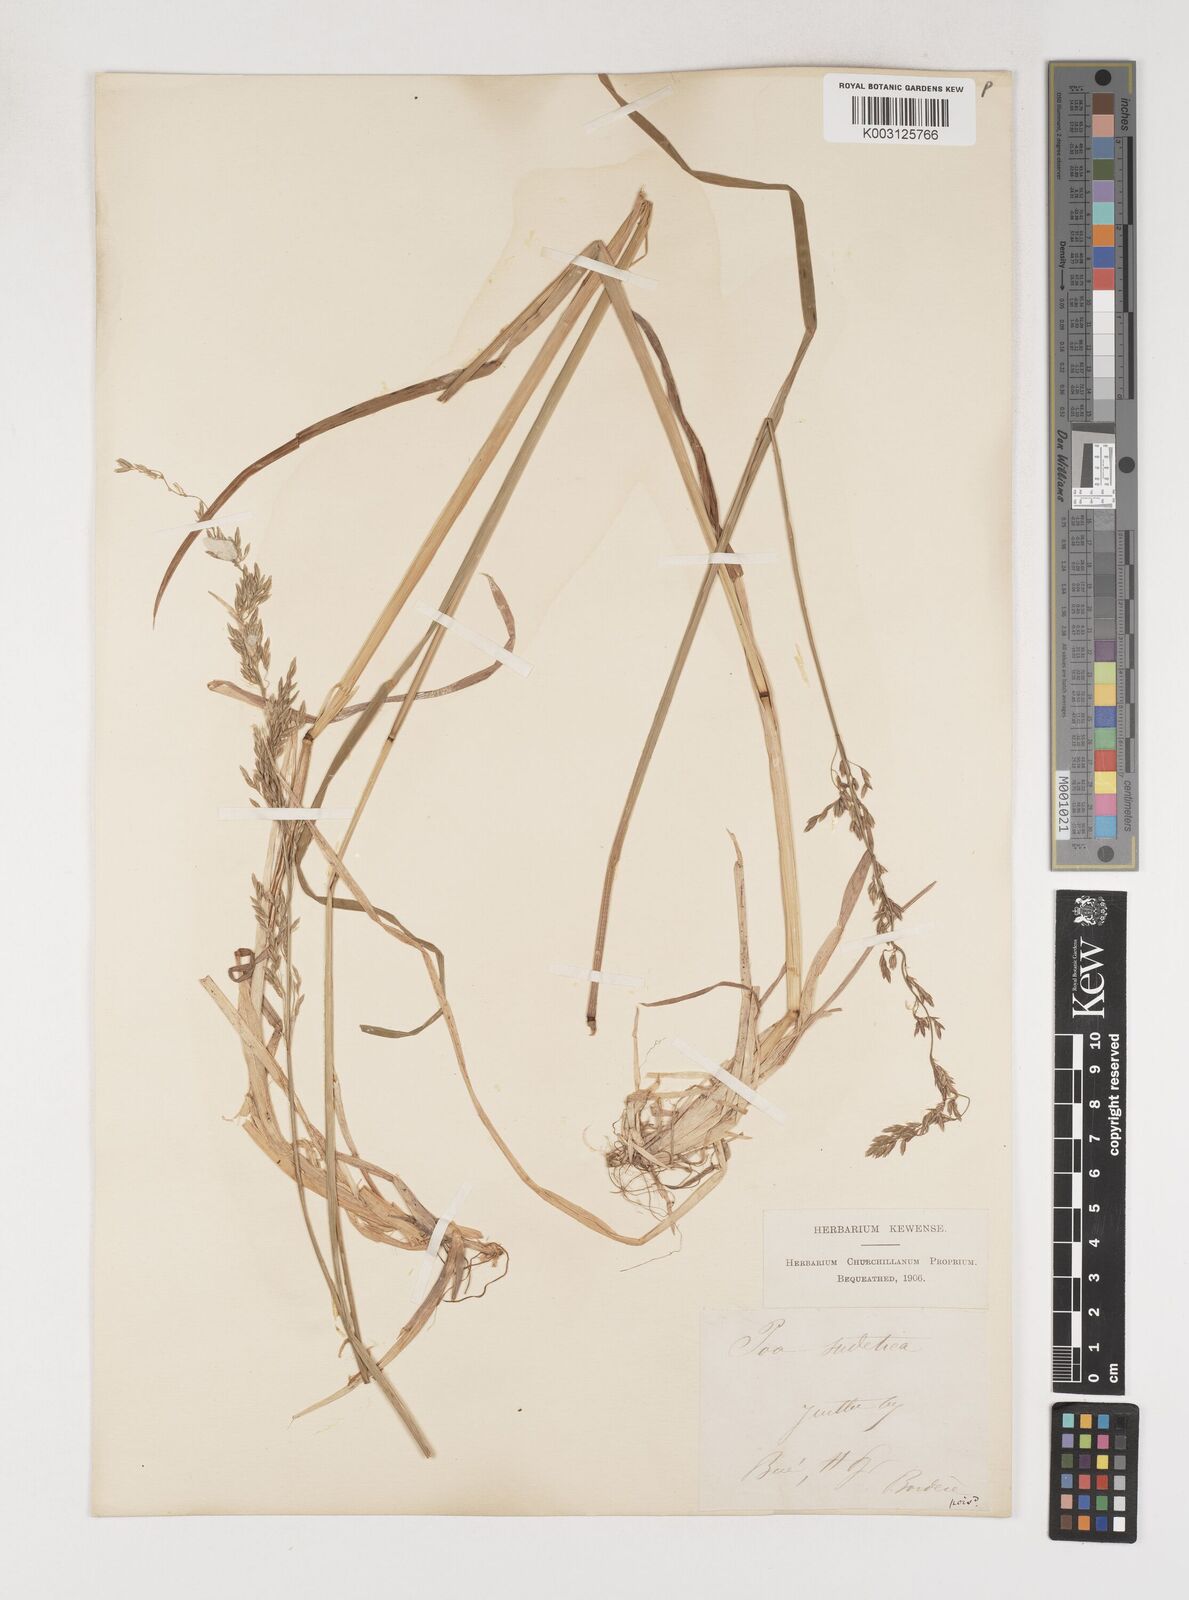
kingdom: Plantae
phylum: Tracheophyta
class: Liliopsida
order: Poales
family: Poaceae
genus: Poa
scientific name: Poa chaixii
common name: Broad-leaved meadow-grass
